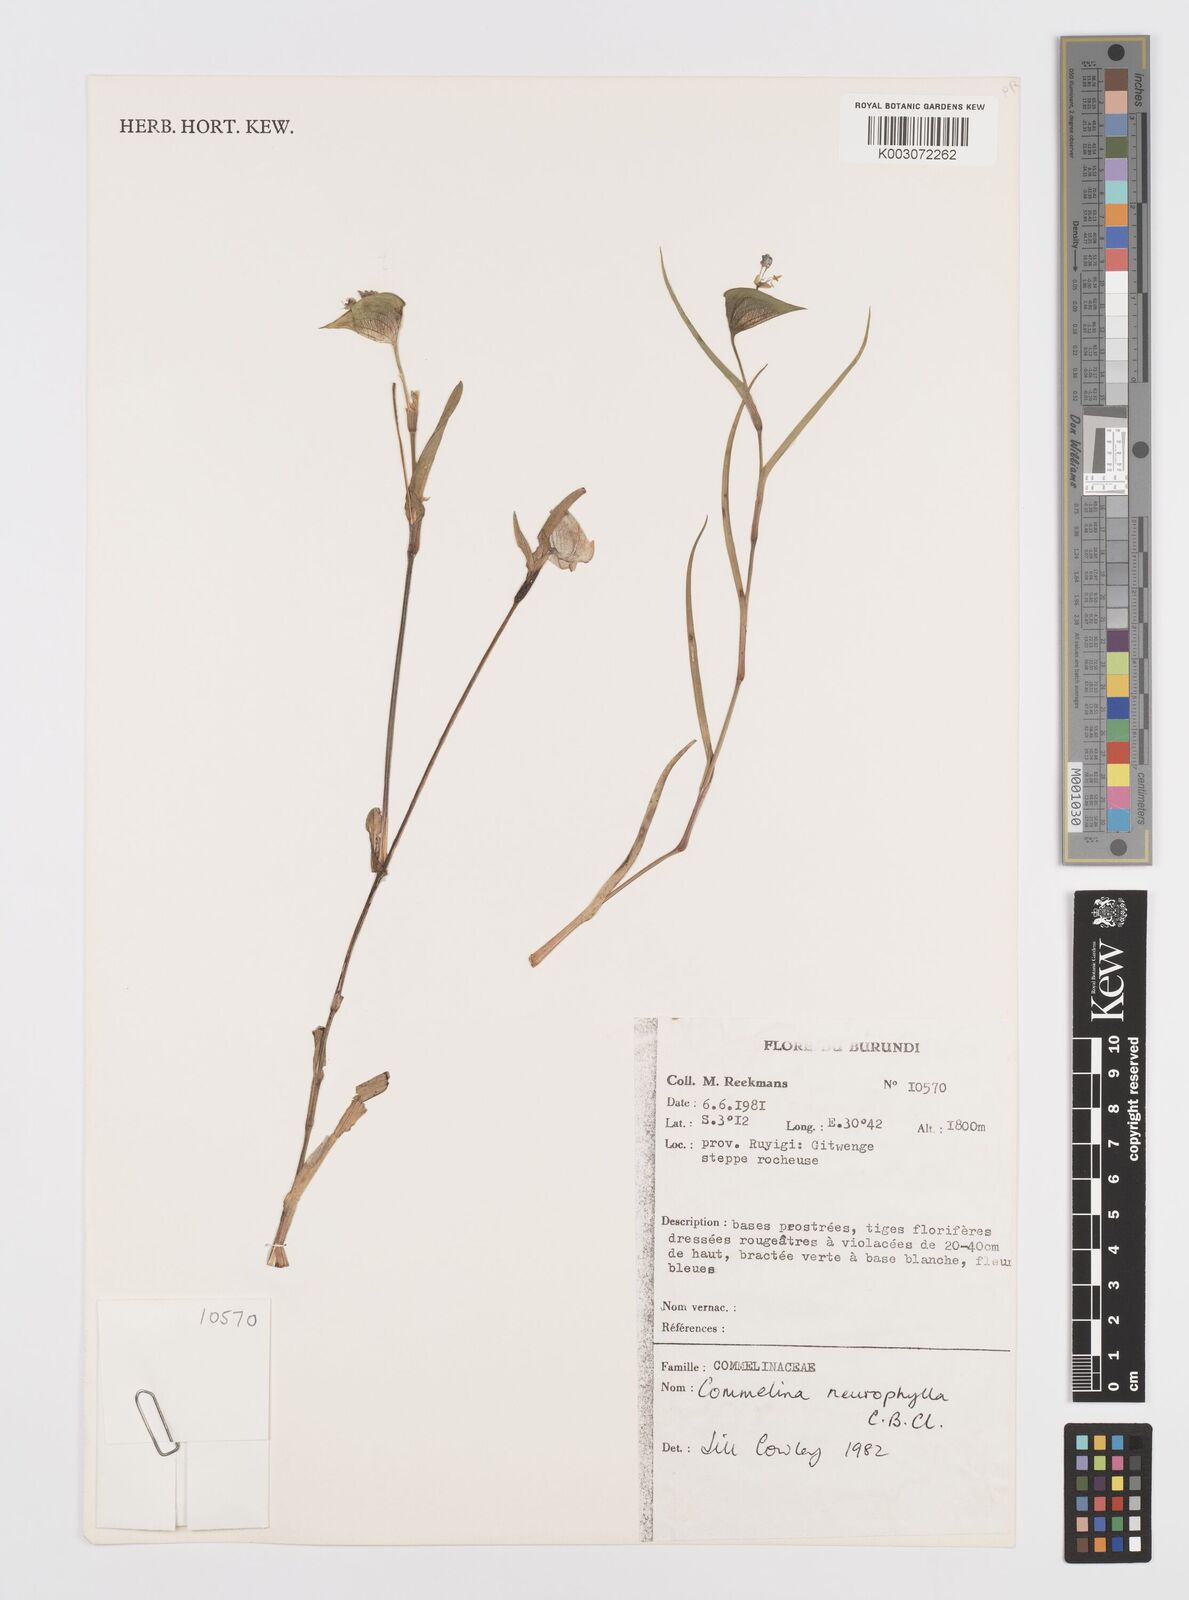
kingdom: Plantae
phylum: Tracheophyta
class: Liliopsida
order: Commelinales
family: Commelinaceae
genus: Commelina
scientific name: Commelina neurophylla
